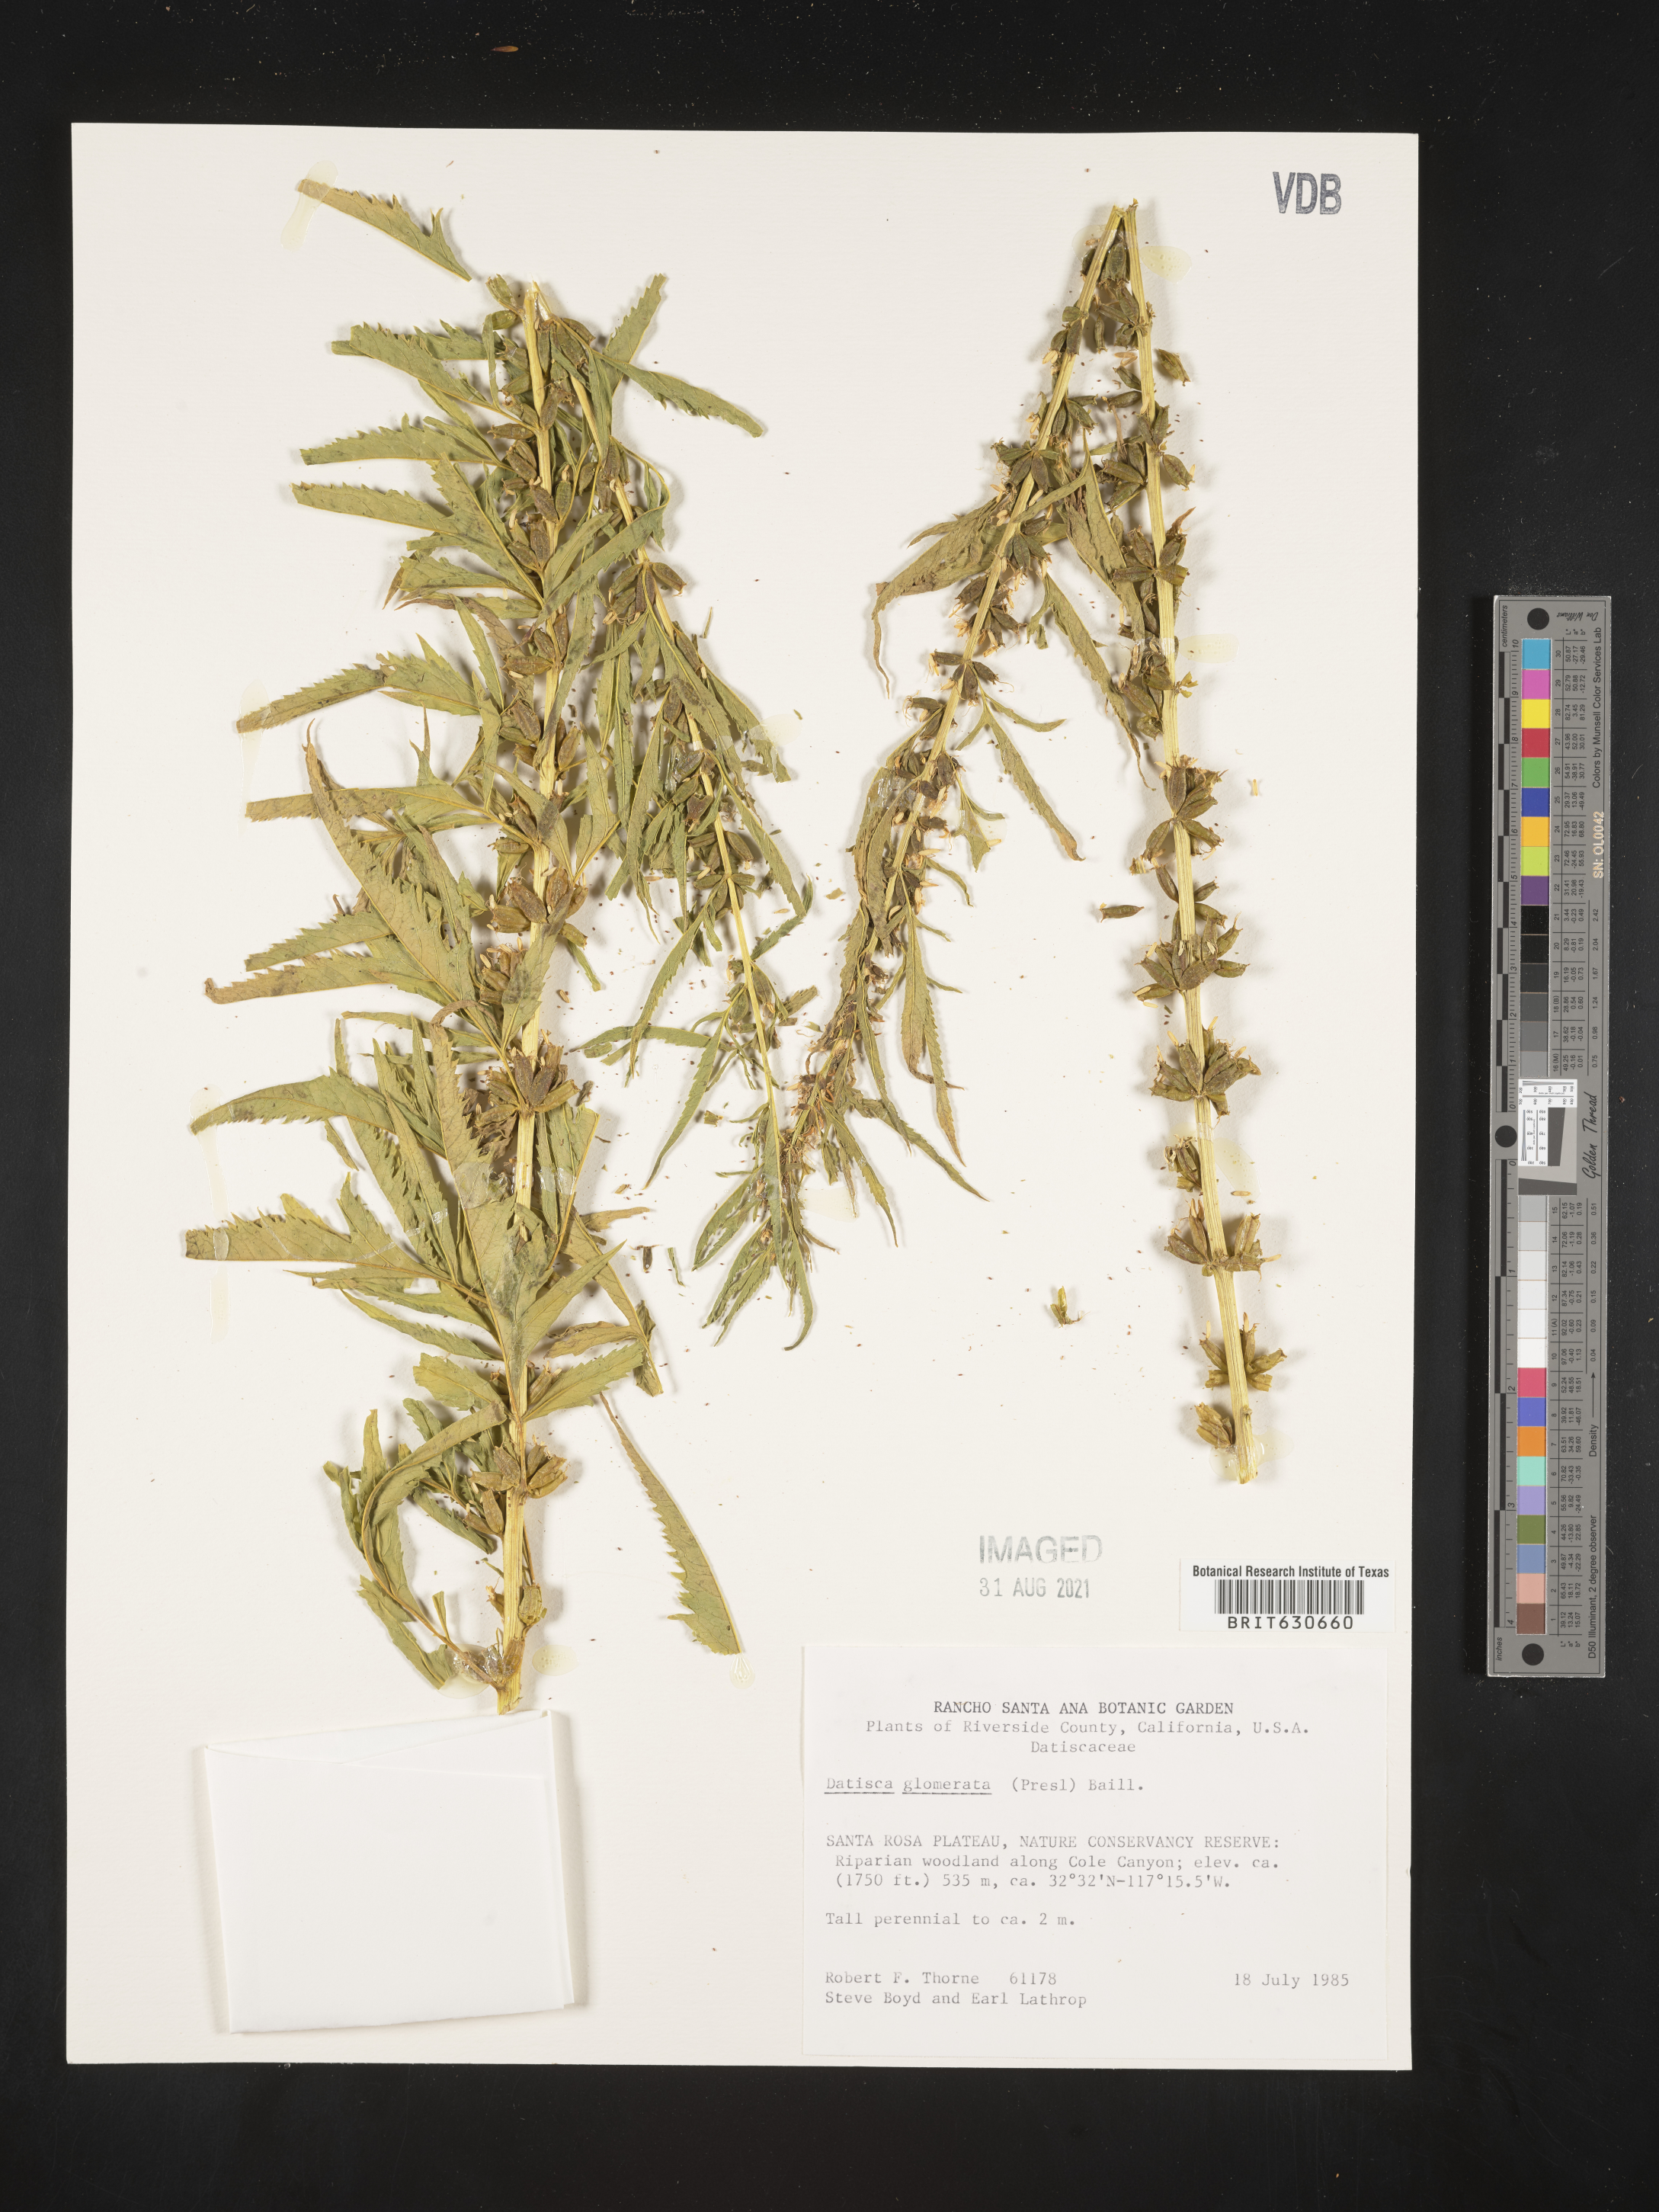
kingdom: Plantae
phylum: Tracheophyta
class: Magnoliopsida
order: Cucurbitales
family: Datiscaceae
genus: Datisca
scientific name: Datisca glomerata
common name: Durango-root
